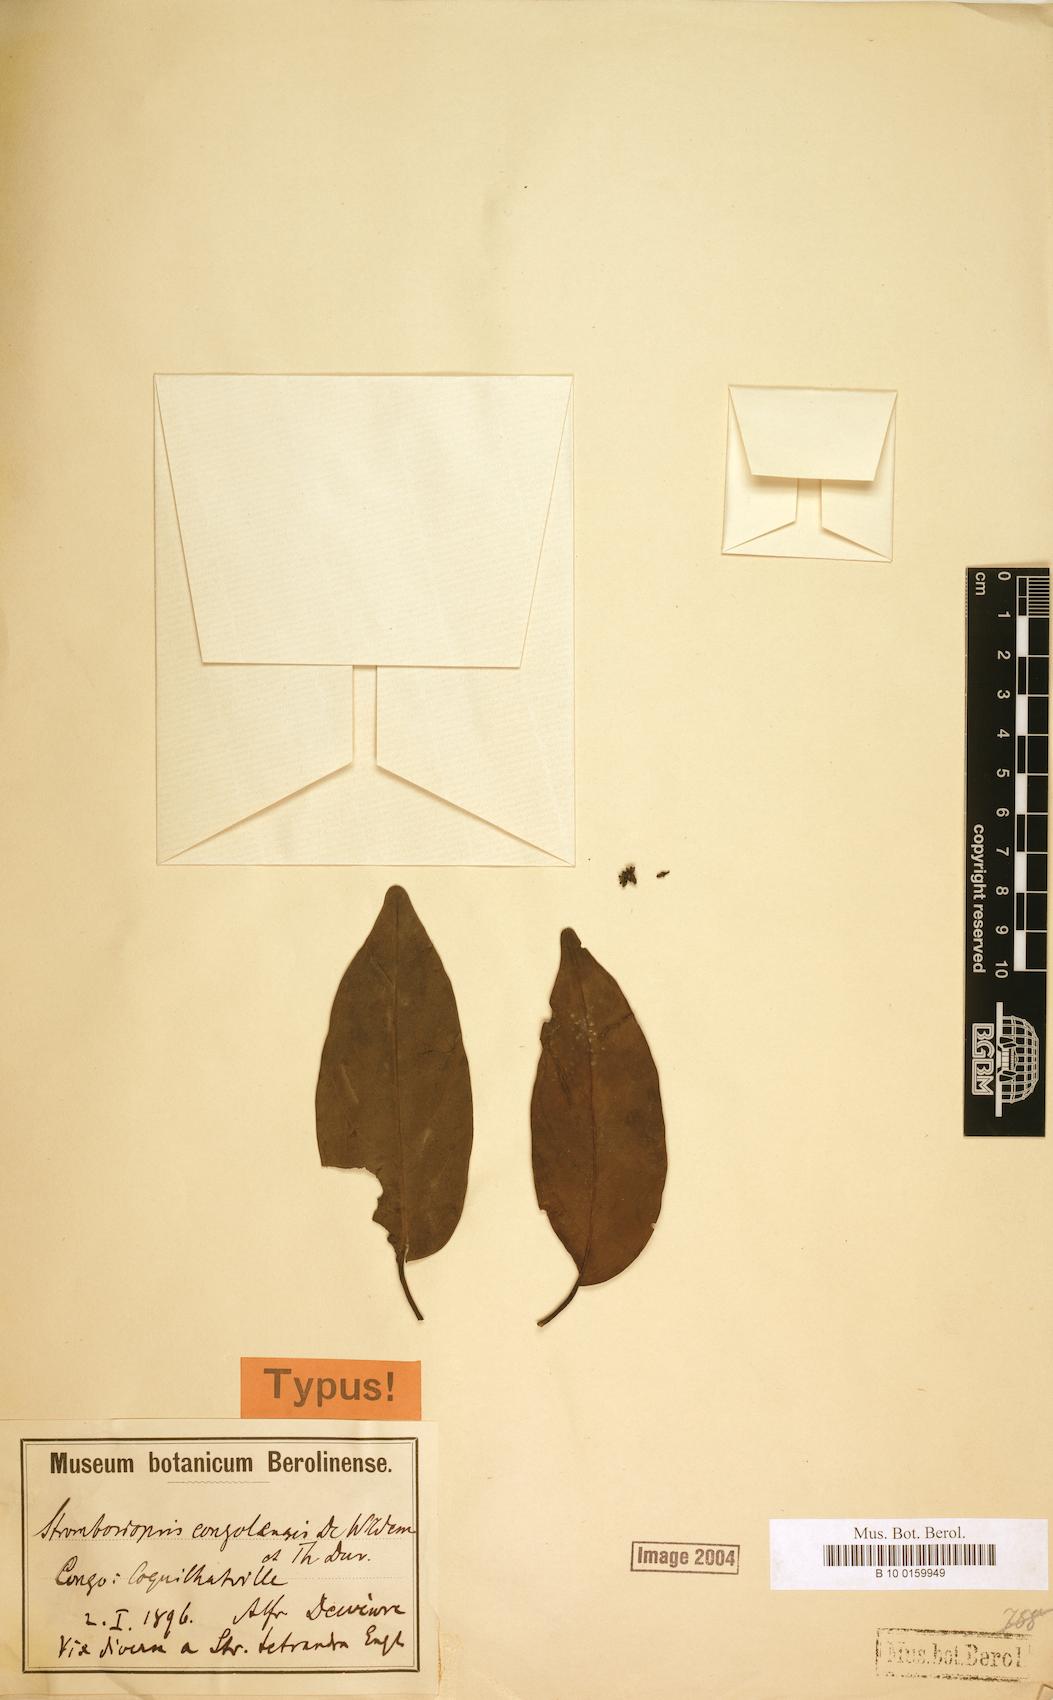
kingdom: Plantae
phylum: Tracheophyta
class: Magnoliopsida
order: Santalales
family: Strombosiaceae
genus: Strombosiopsis
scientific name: Strombosiopsis tetrandra
